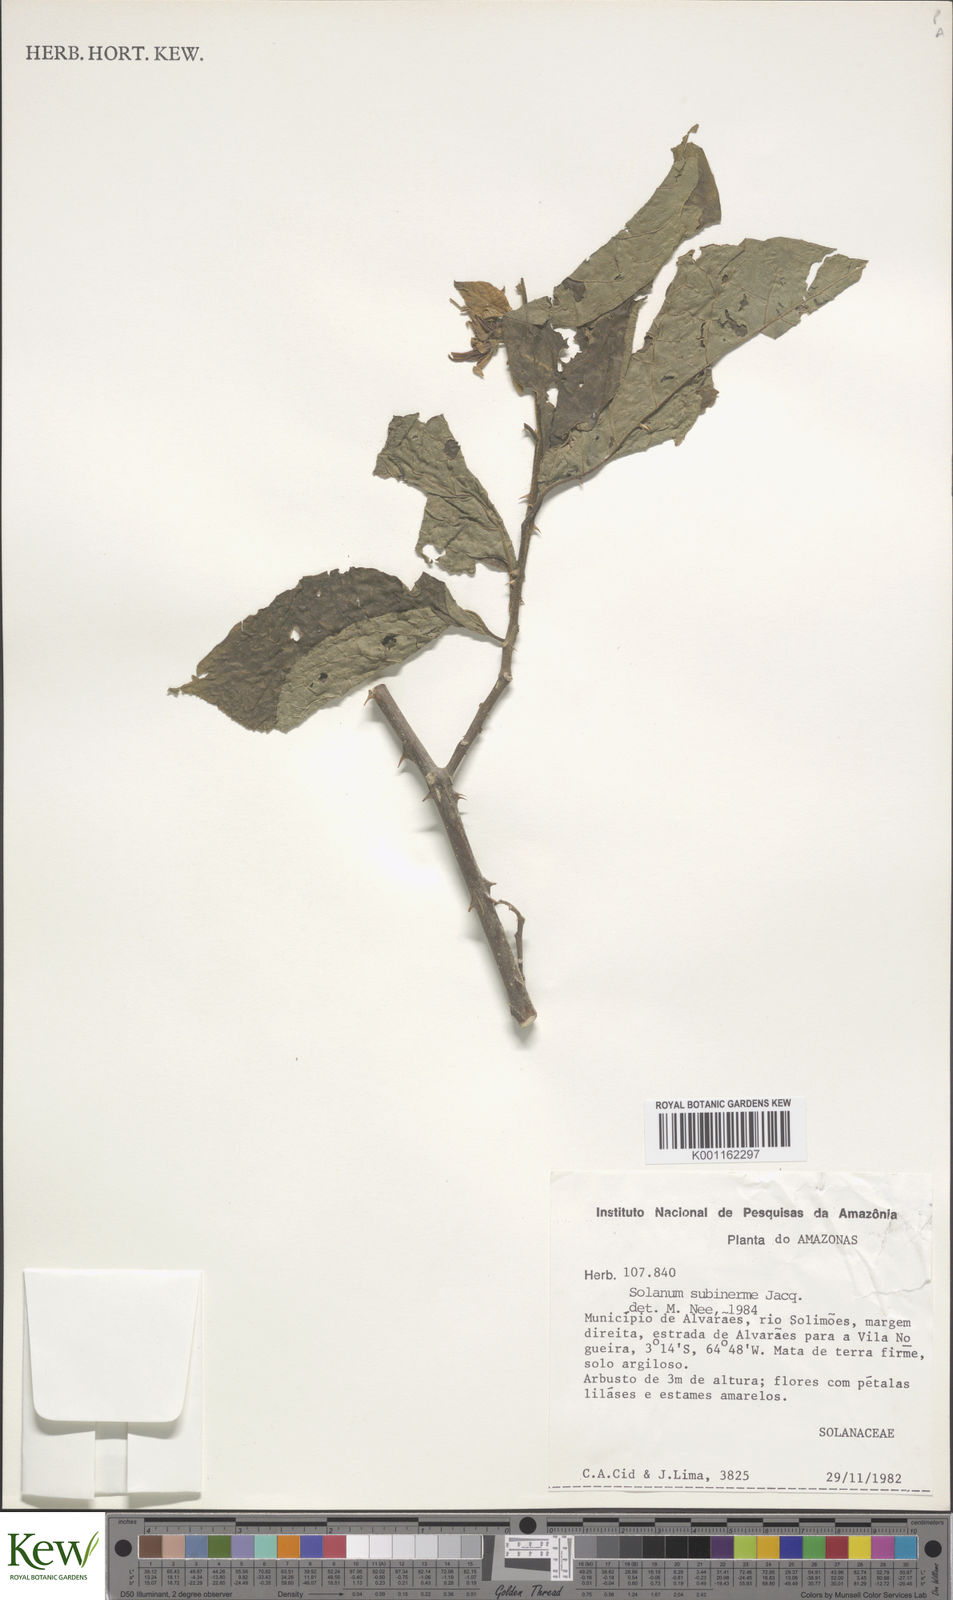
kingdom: Plantae
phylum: Tracheophyta
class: Magnoliopsida
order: Solanales
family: Solanaceae
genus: Solanum
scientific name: Solanum subinerme
